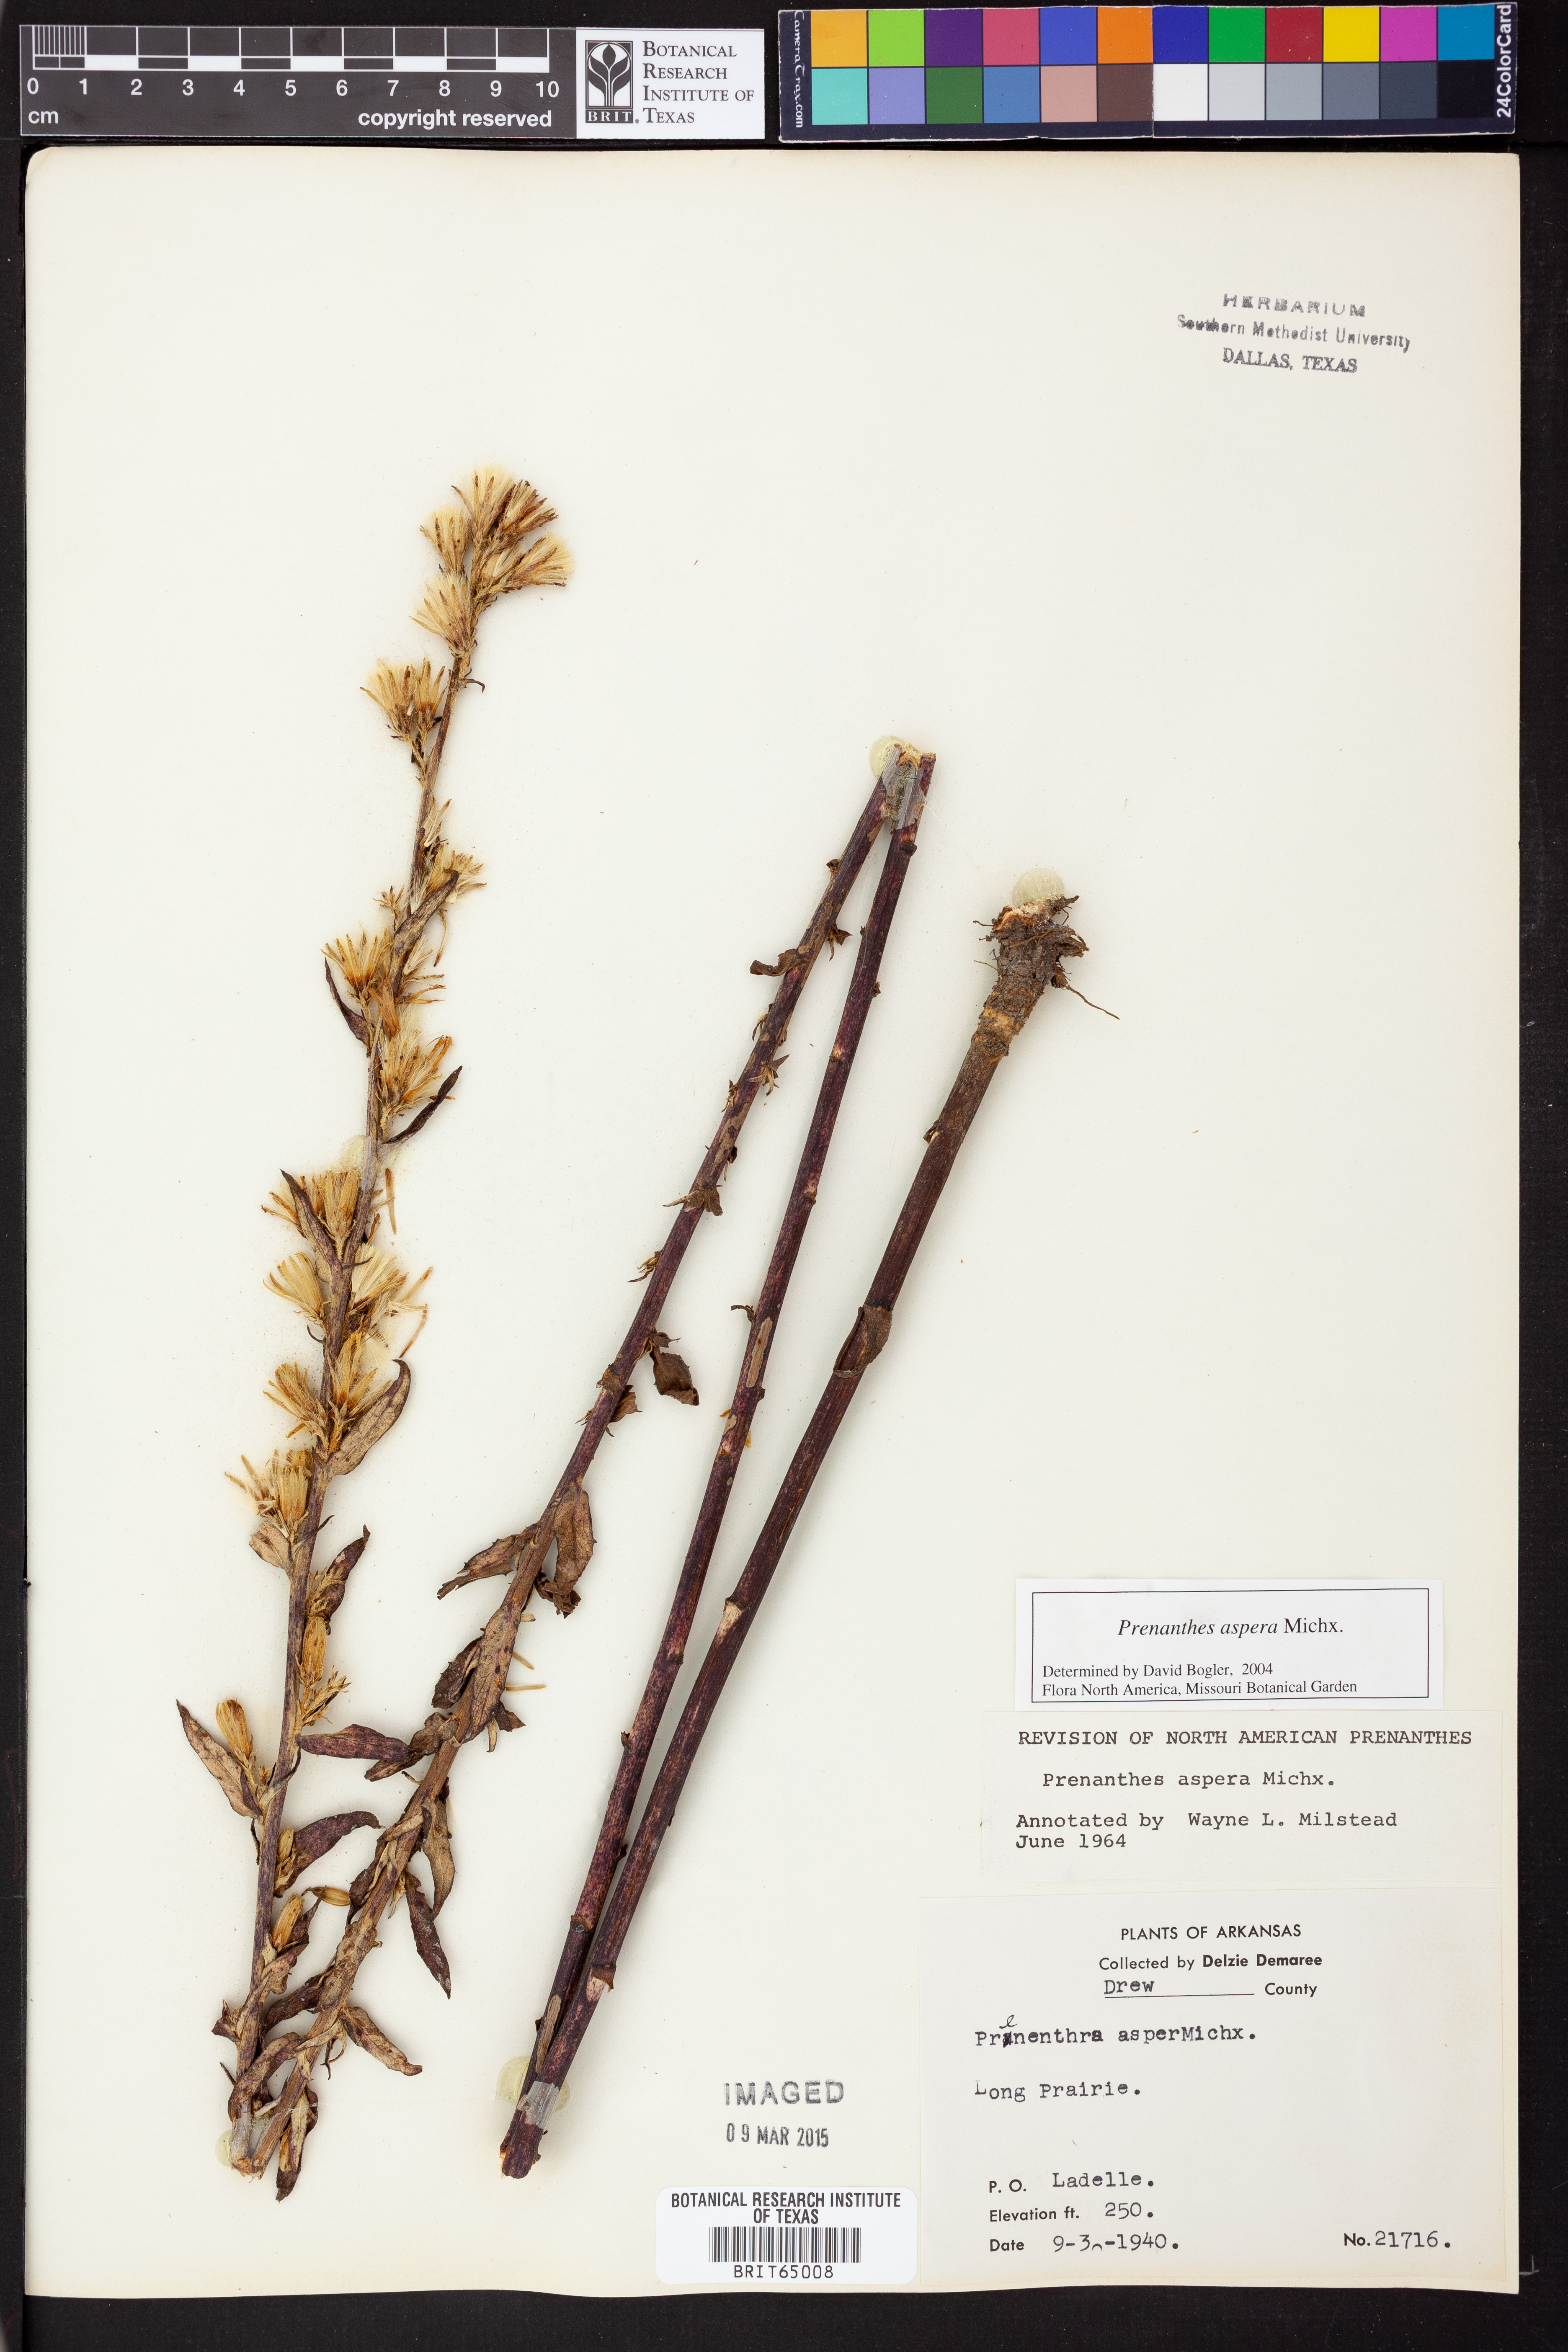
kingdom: Plantae
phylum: Tracheophyta
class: Magnoliopsida
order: Asterales
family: Asteraceae
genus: Nabalus
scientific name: Nabalus asper
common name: Rough rattlesnakeroot
